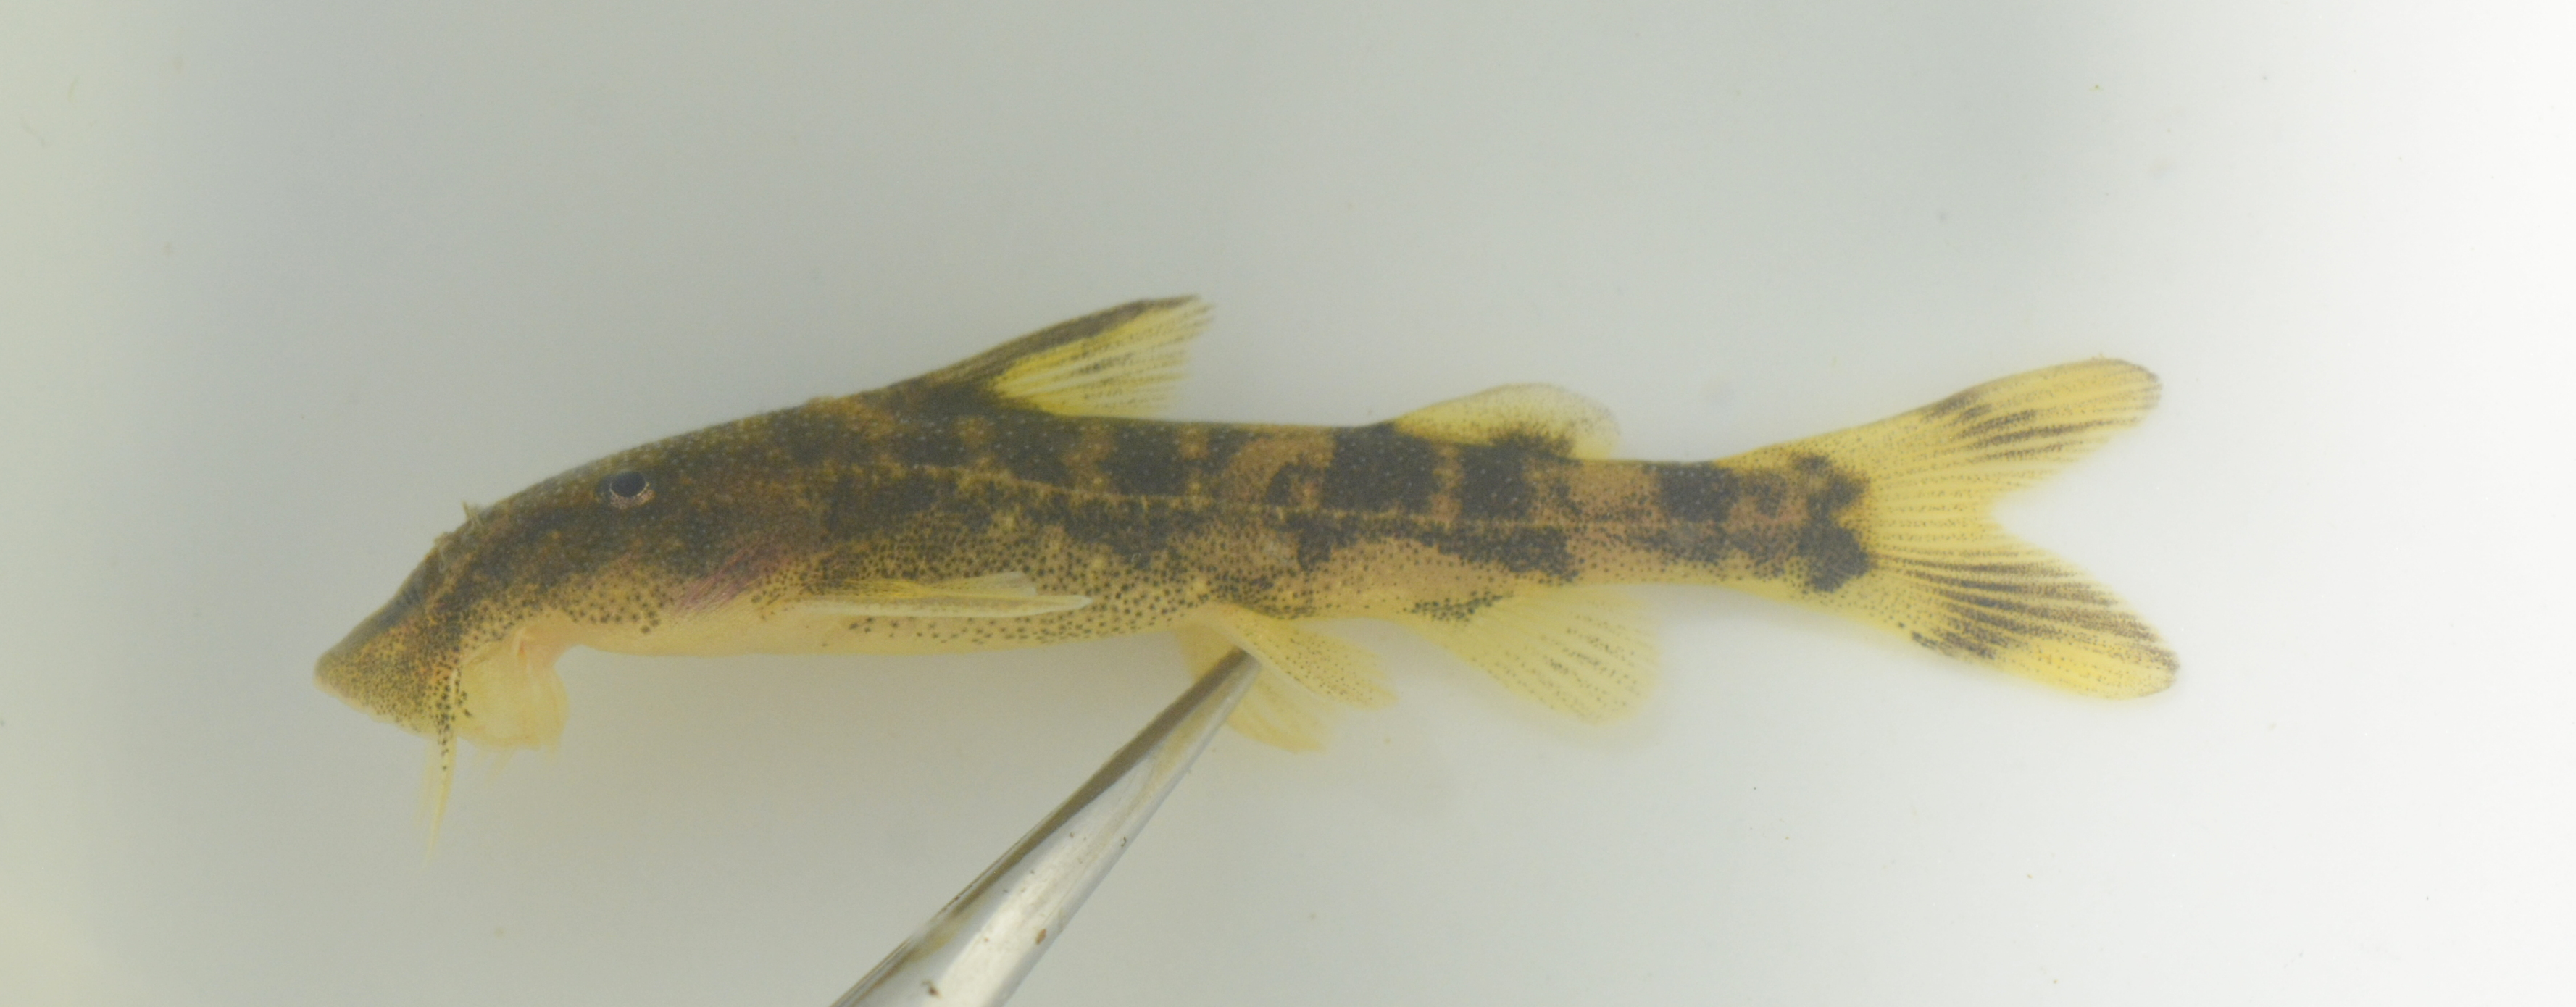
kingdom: Animalia
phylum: Chordata
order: Siluriformes
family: Mochokidae
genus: Chiloglanis
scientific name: Chiloglanis fasciatus
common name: Okavango suckermouth
